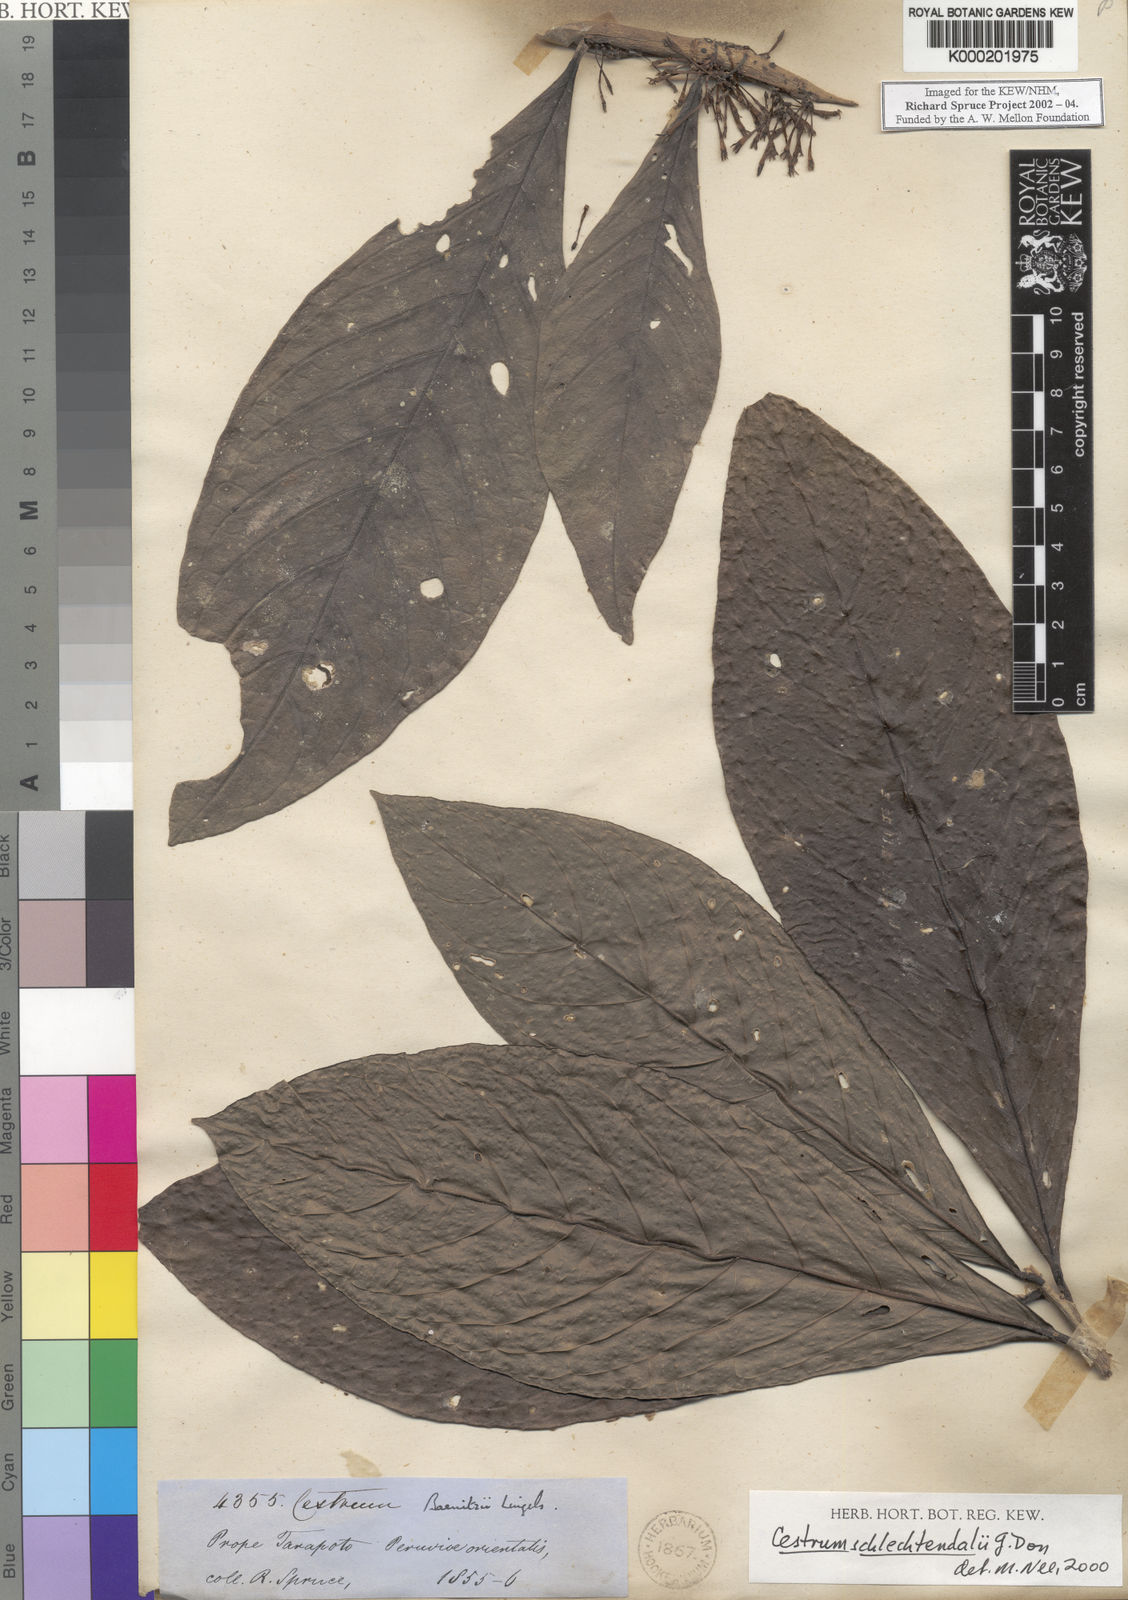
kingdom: Plantae
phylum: Tracheophyta
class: Magnoliopsida
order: Solanales
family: Solanaceae
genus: Cestrum
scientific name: Cestrum schlechtendalii
